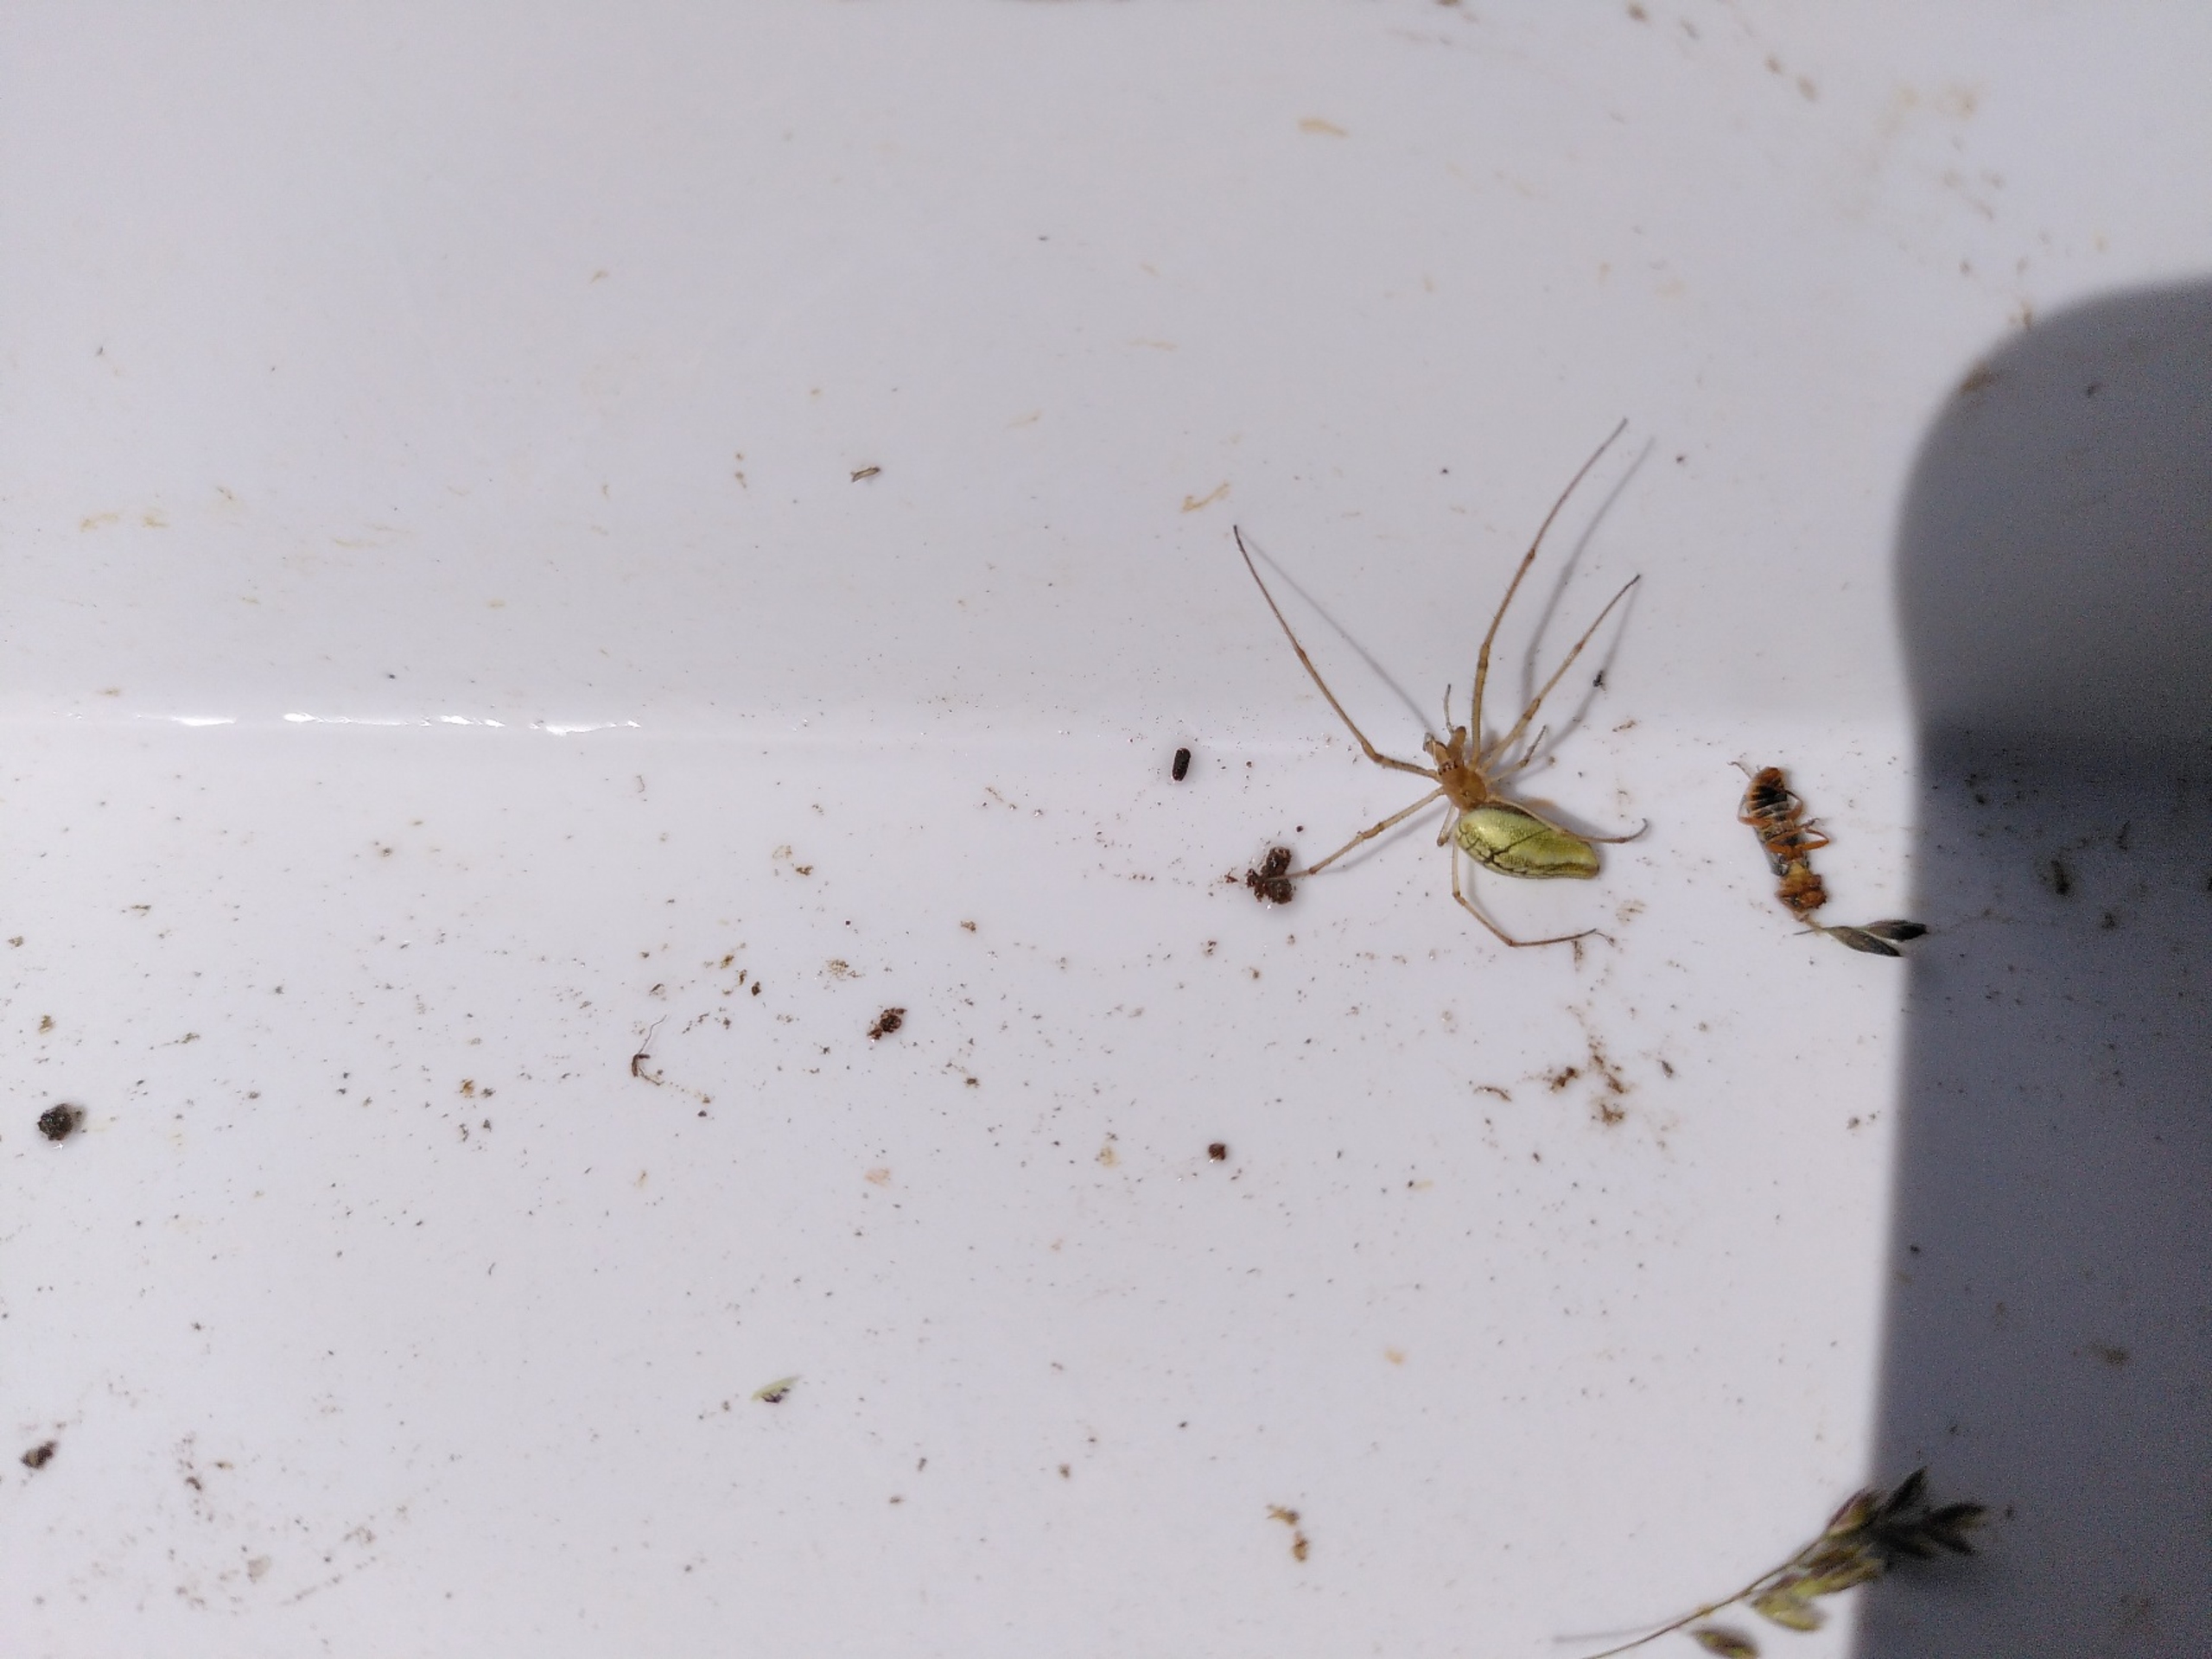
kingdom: Animalia
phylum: Arthropoda
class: Arachnida
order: Araneae
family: Tetragnathidae
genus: Tetragnatha
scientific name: Tetragnatha extensa
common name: Engstavedderkop
